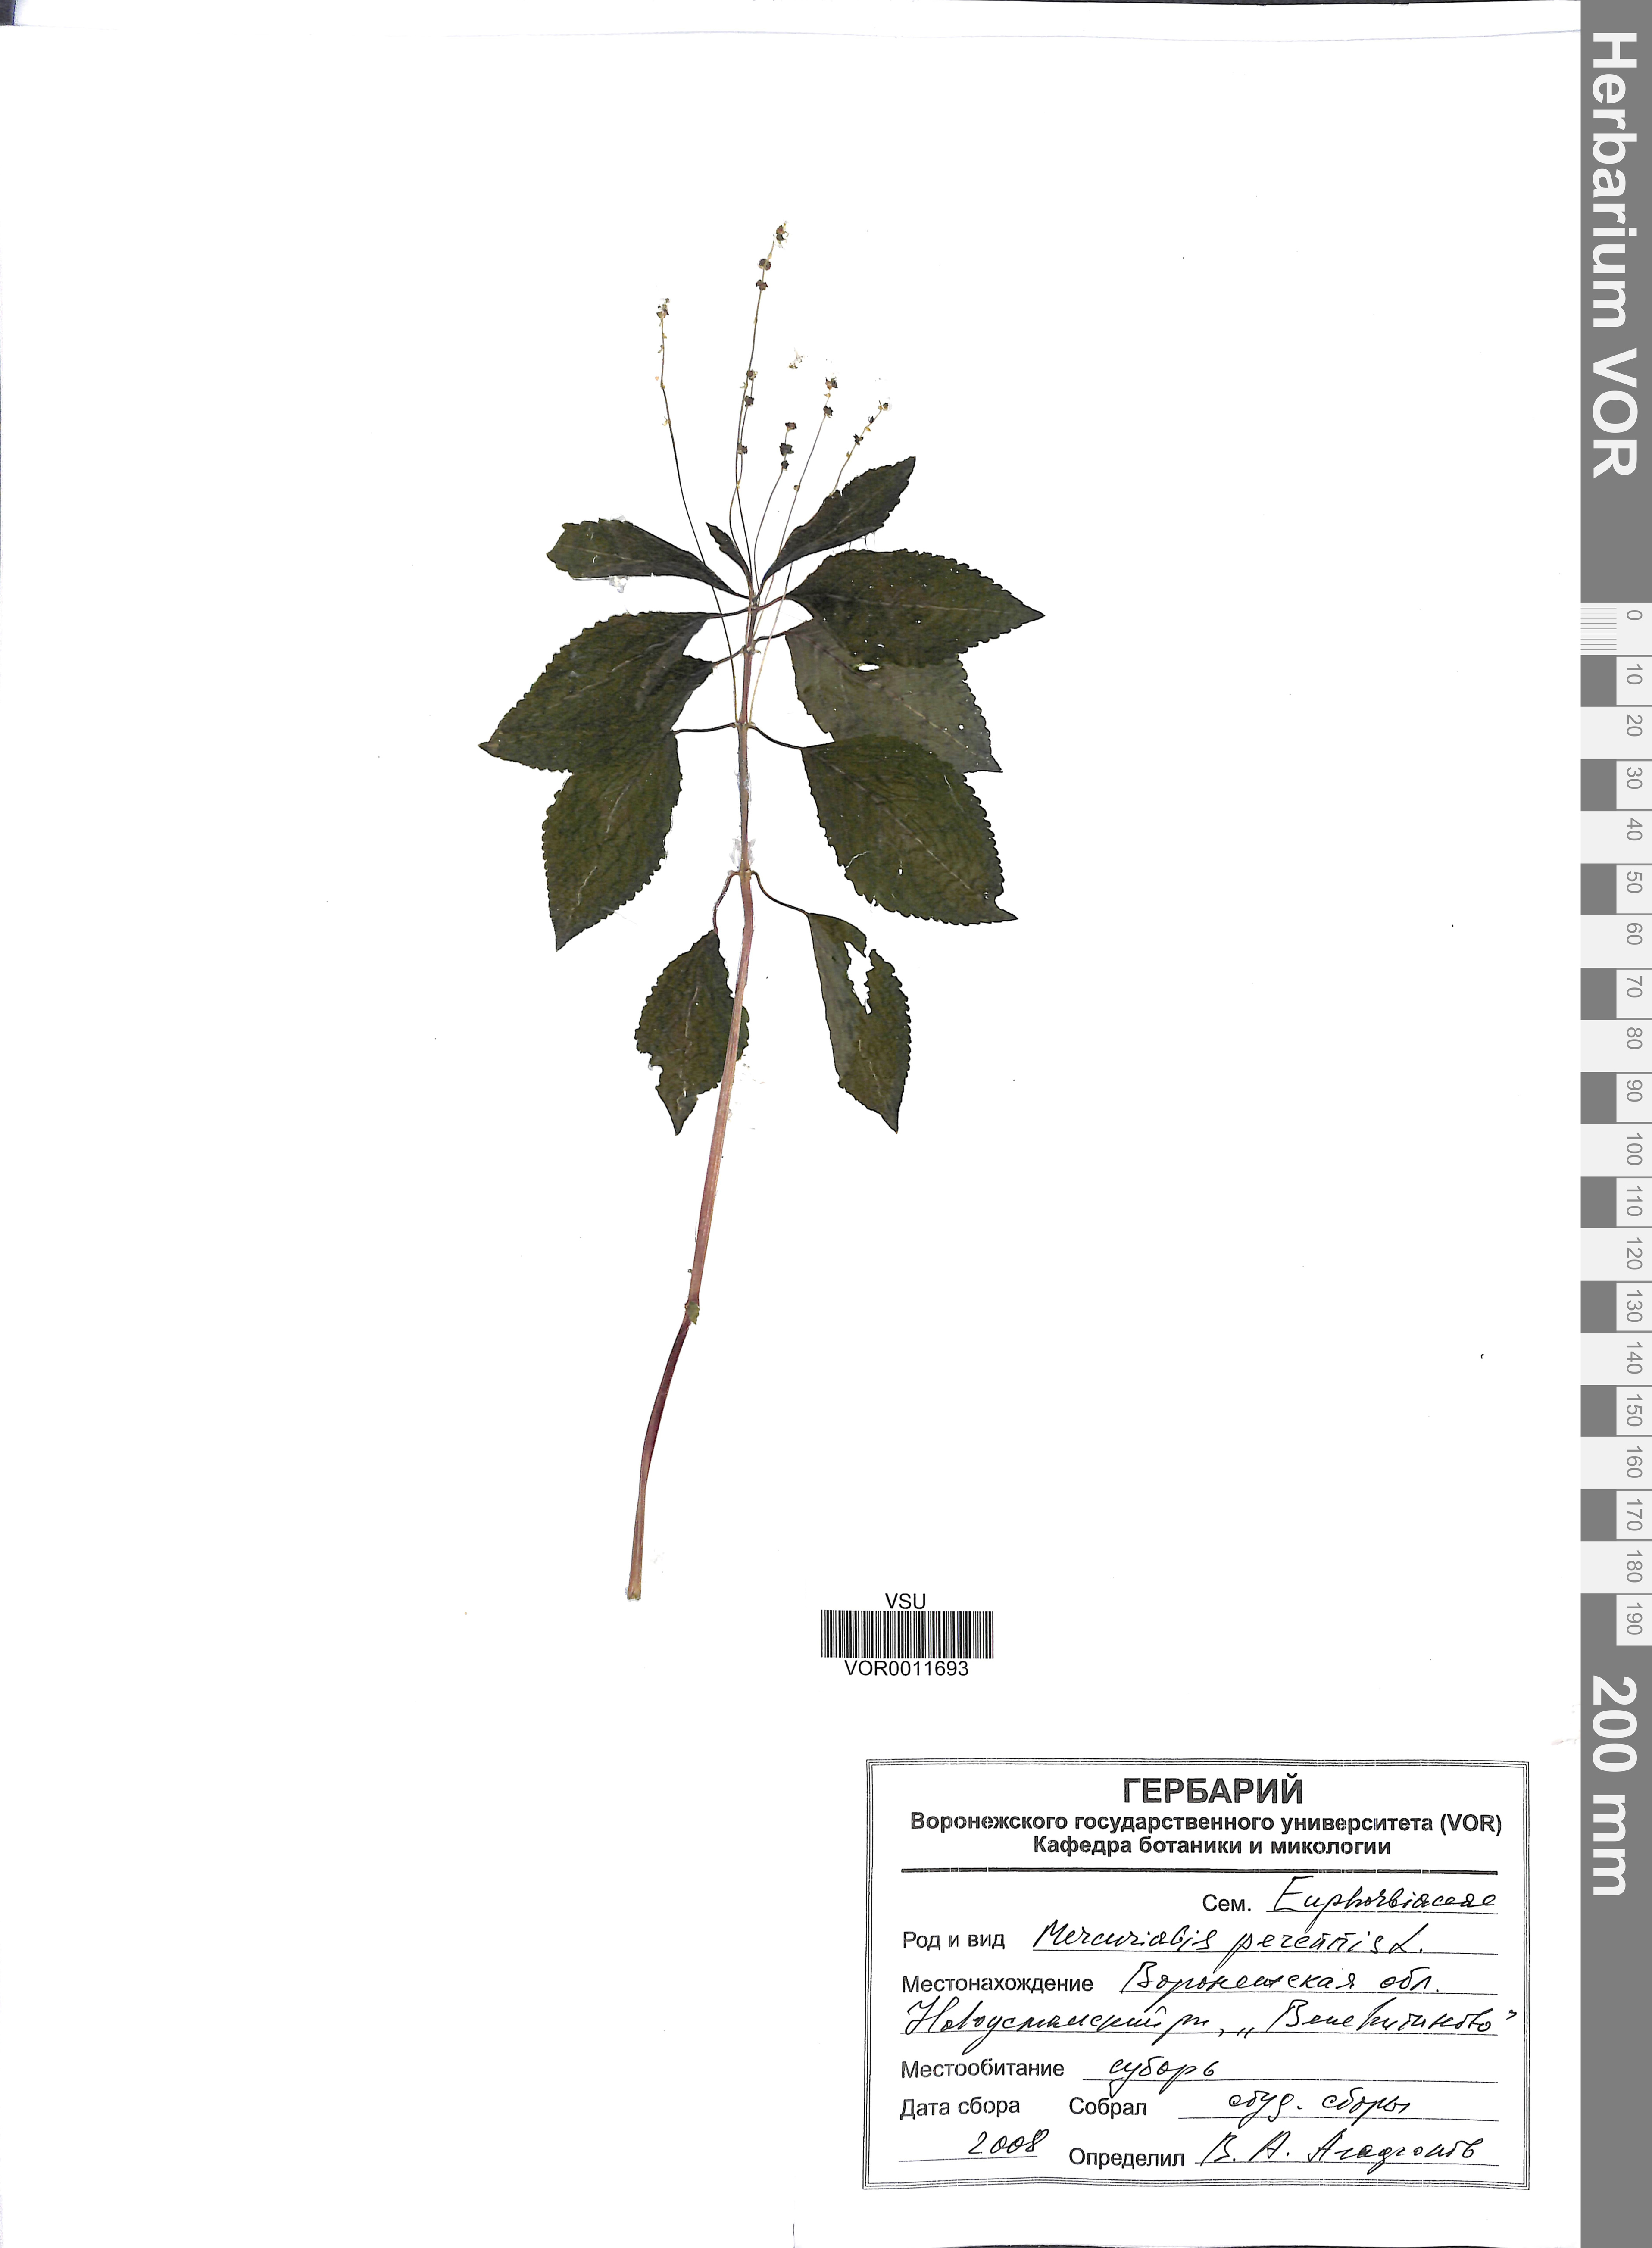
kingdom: Plantae
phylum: Tracheophyta
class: Magnoliopsida
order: Malpighiales
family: Euphorbiaceae
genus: Mercurialis
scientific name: Mercurialis perennis
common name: Dog mercury
